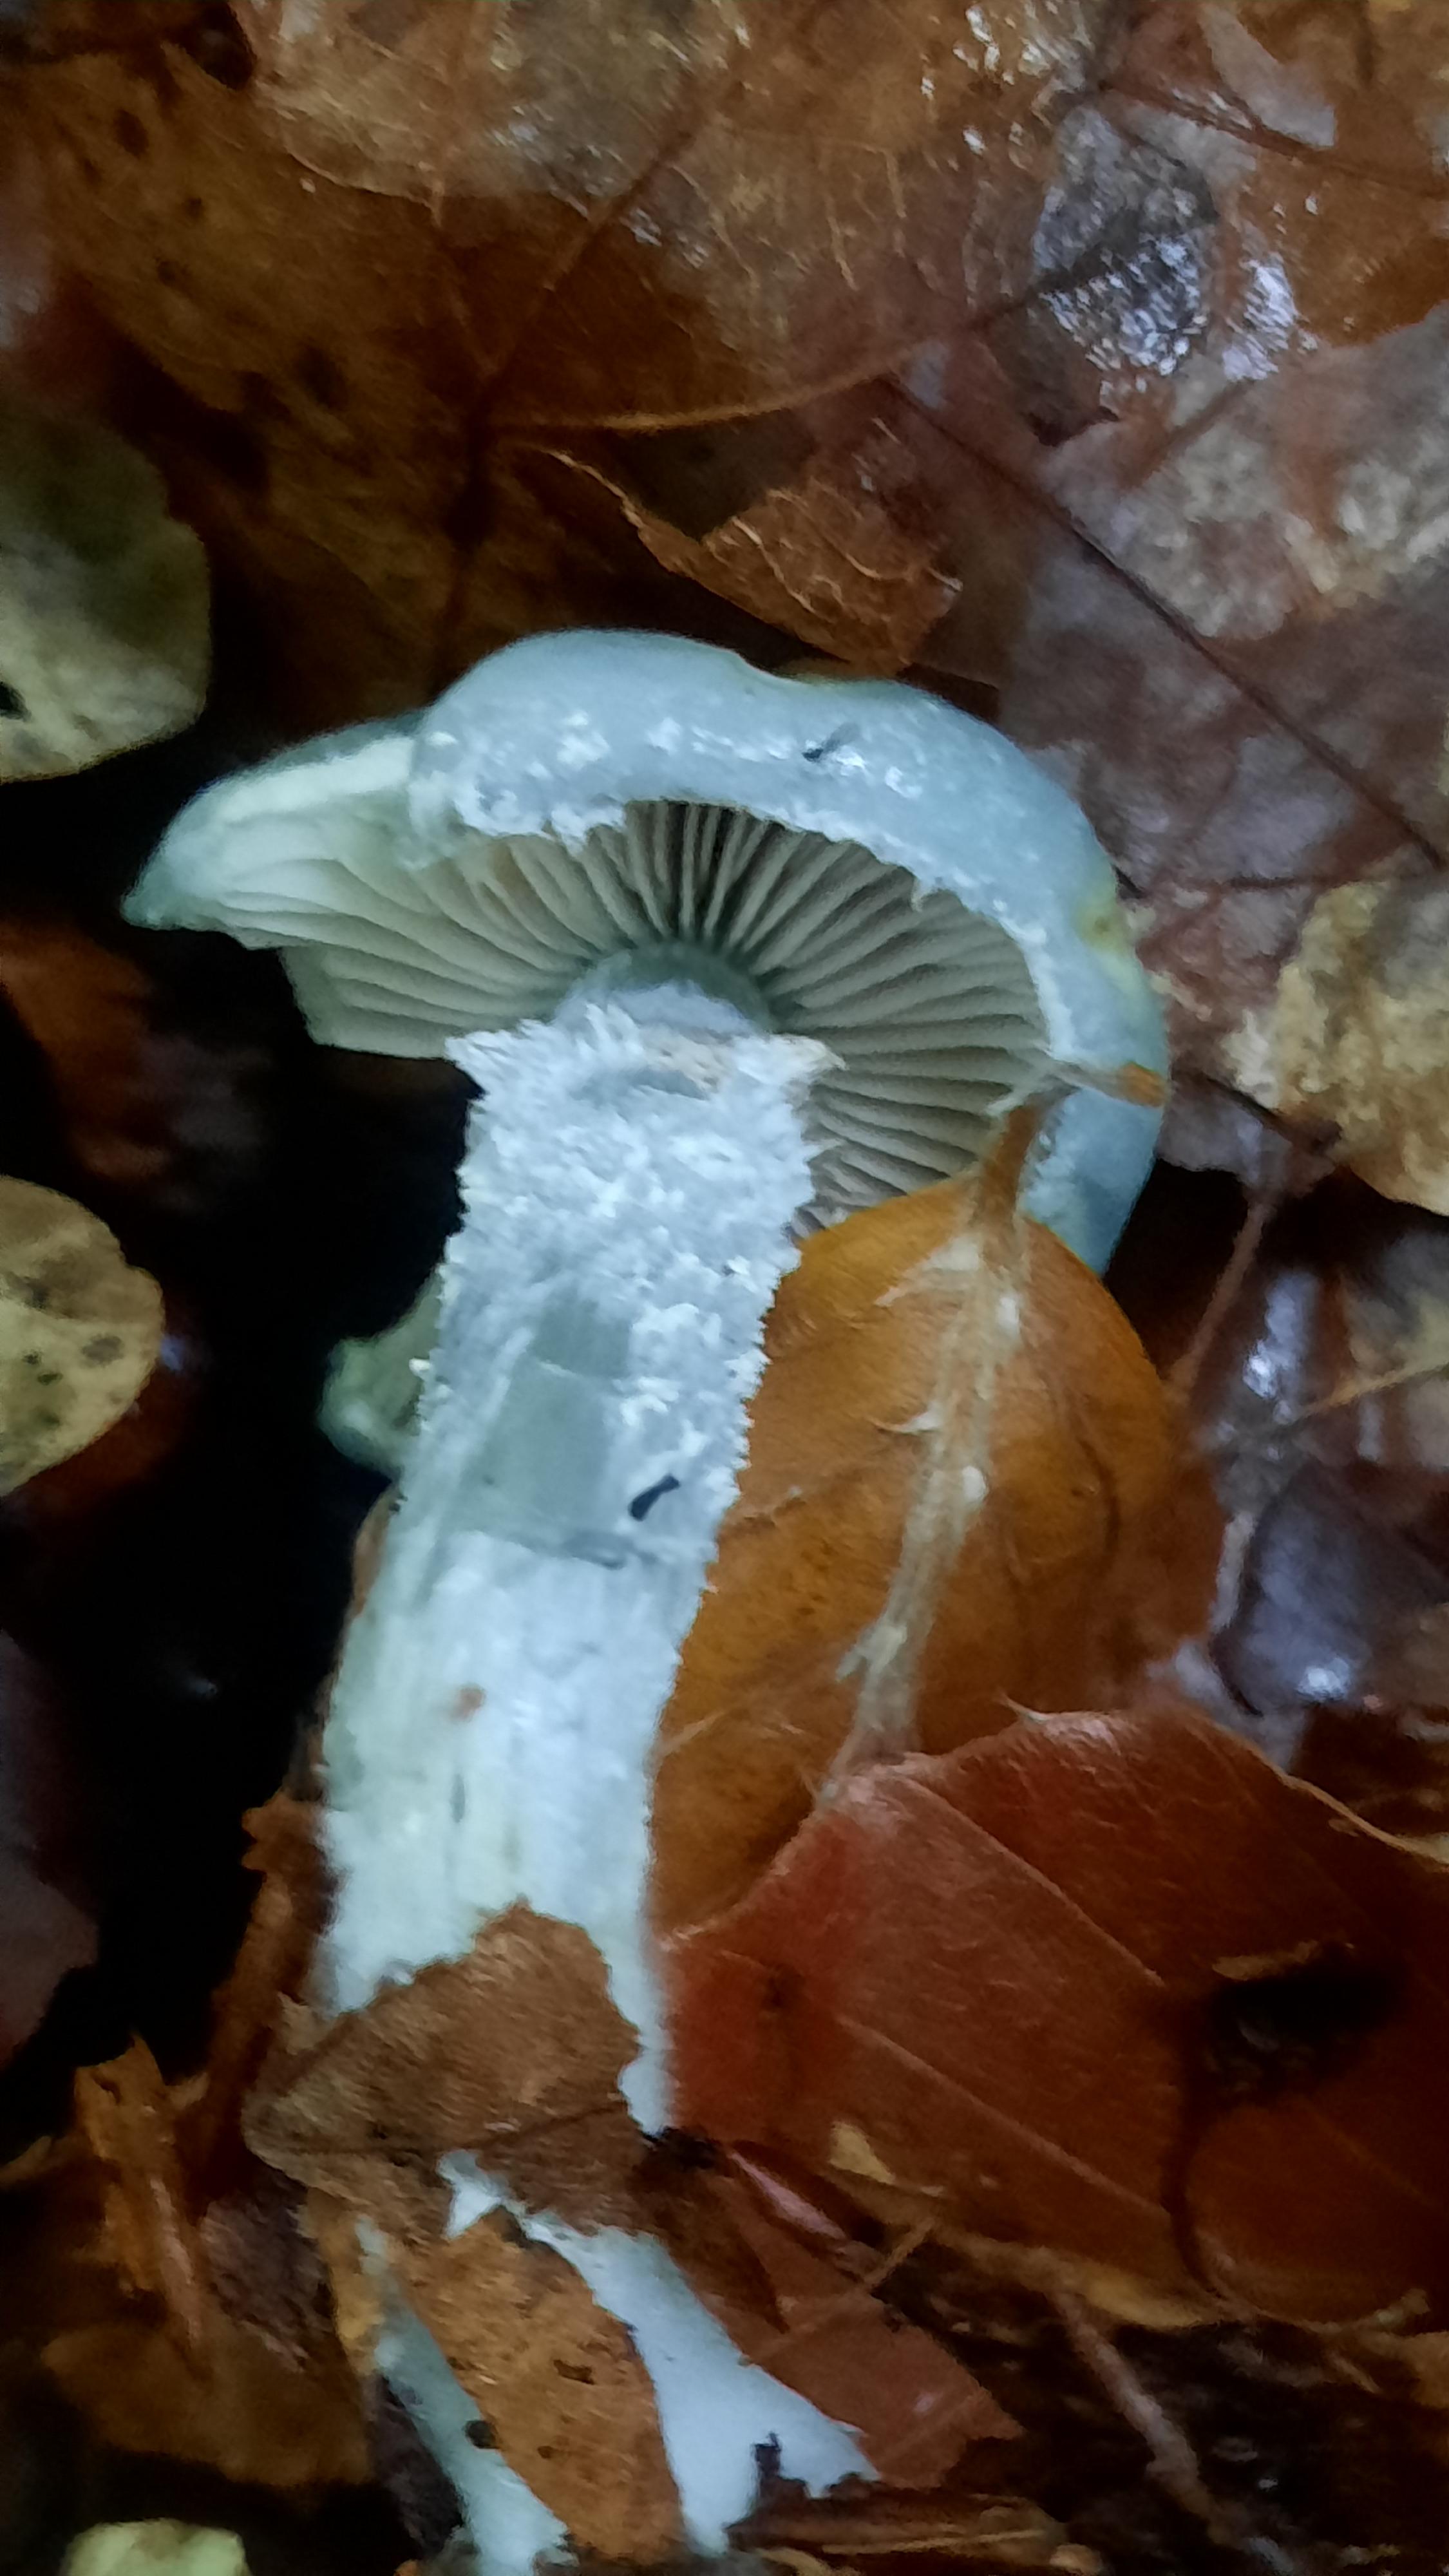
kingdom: Fungi
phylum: Basidiomycota
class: Agaricomycetes
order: Agaricales
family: Strophariaceae
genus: Stropharia
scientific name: Stropharia
